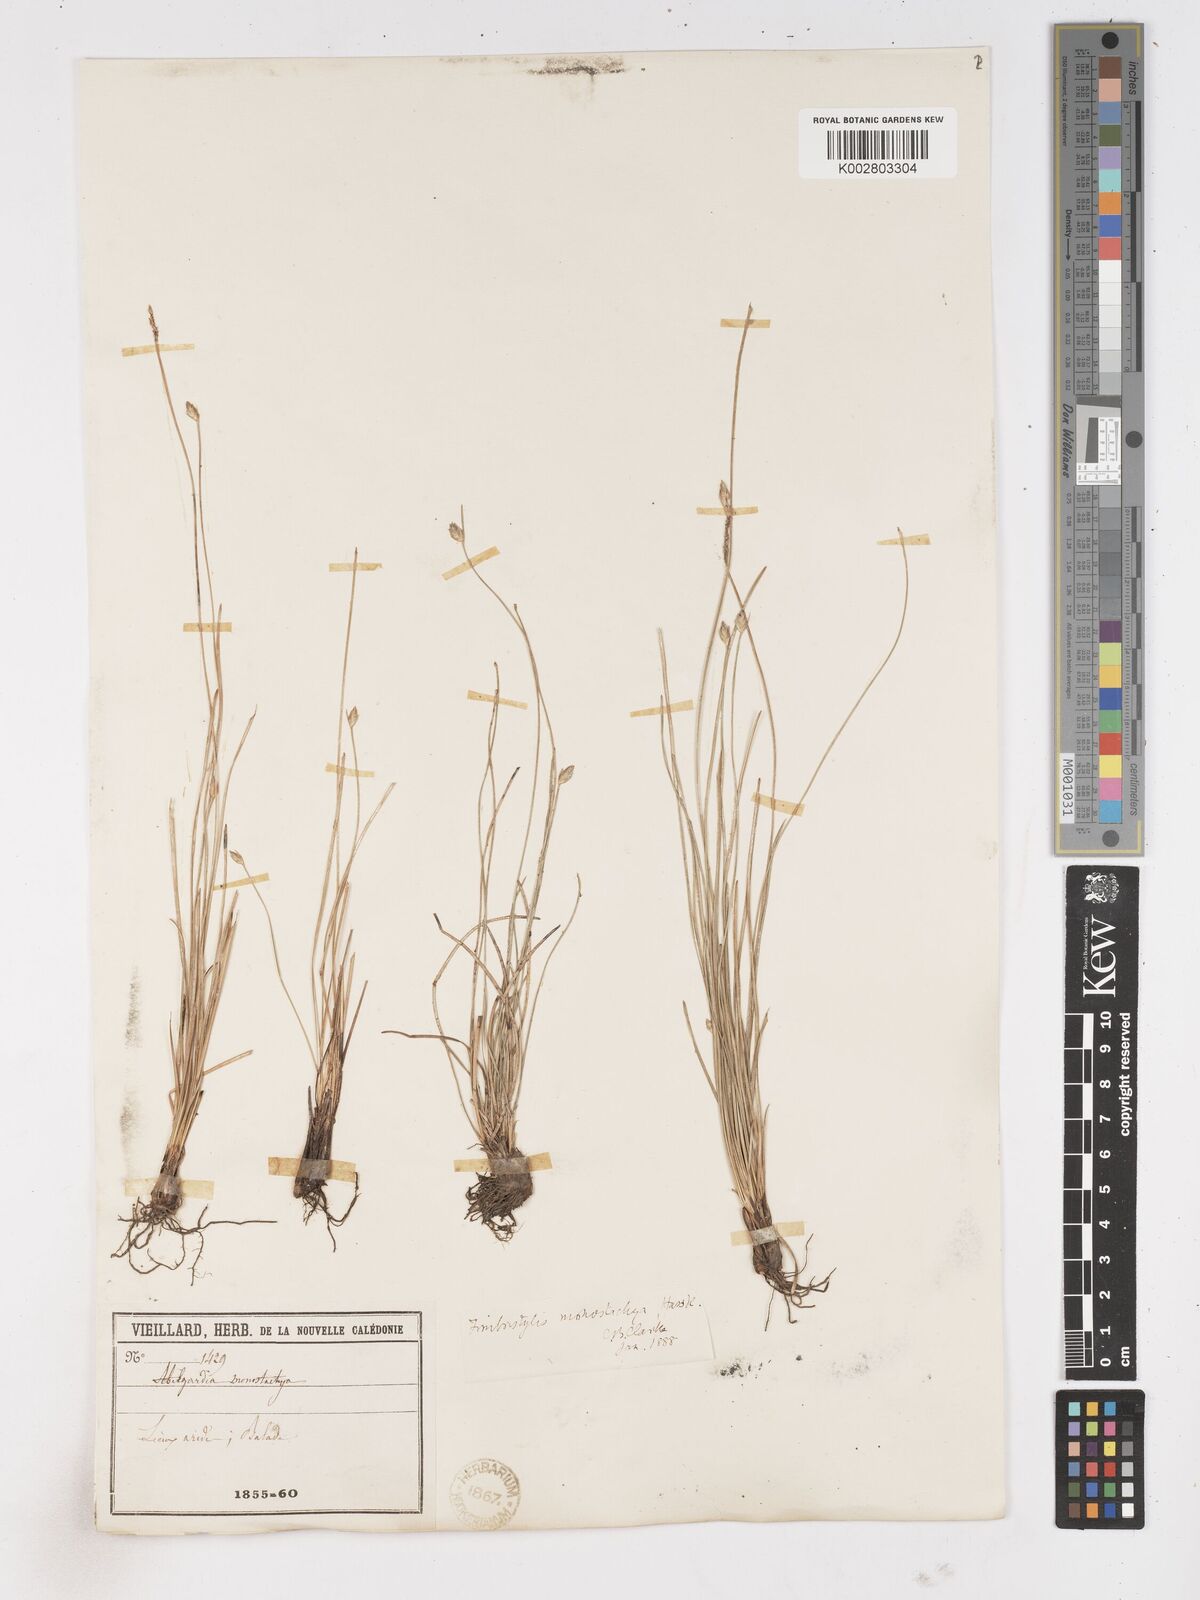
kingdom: Plantae
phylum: Tracheophyta
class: Liliopsida
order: Poales
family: Cyperaceae
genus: Abildgaardia
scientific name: Abildgaardia ovata
